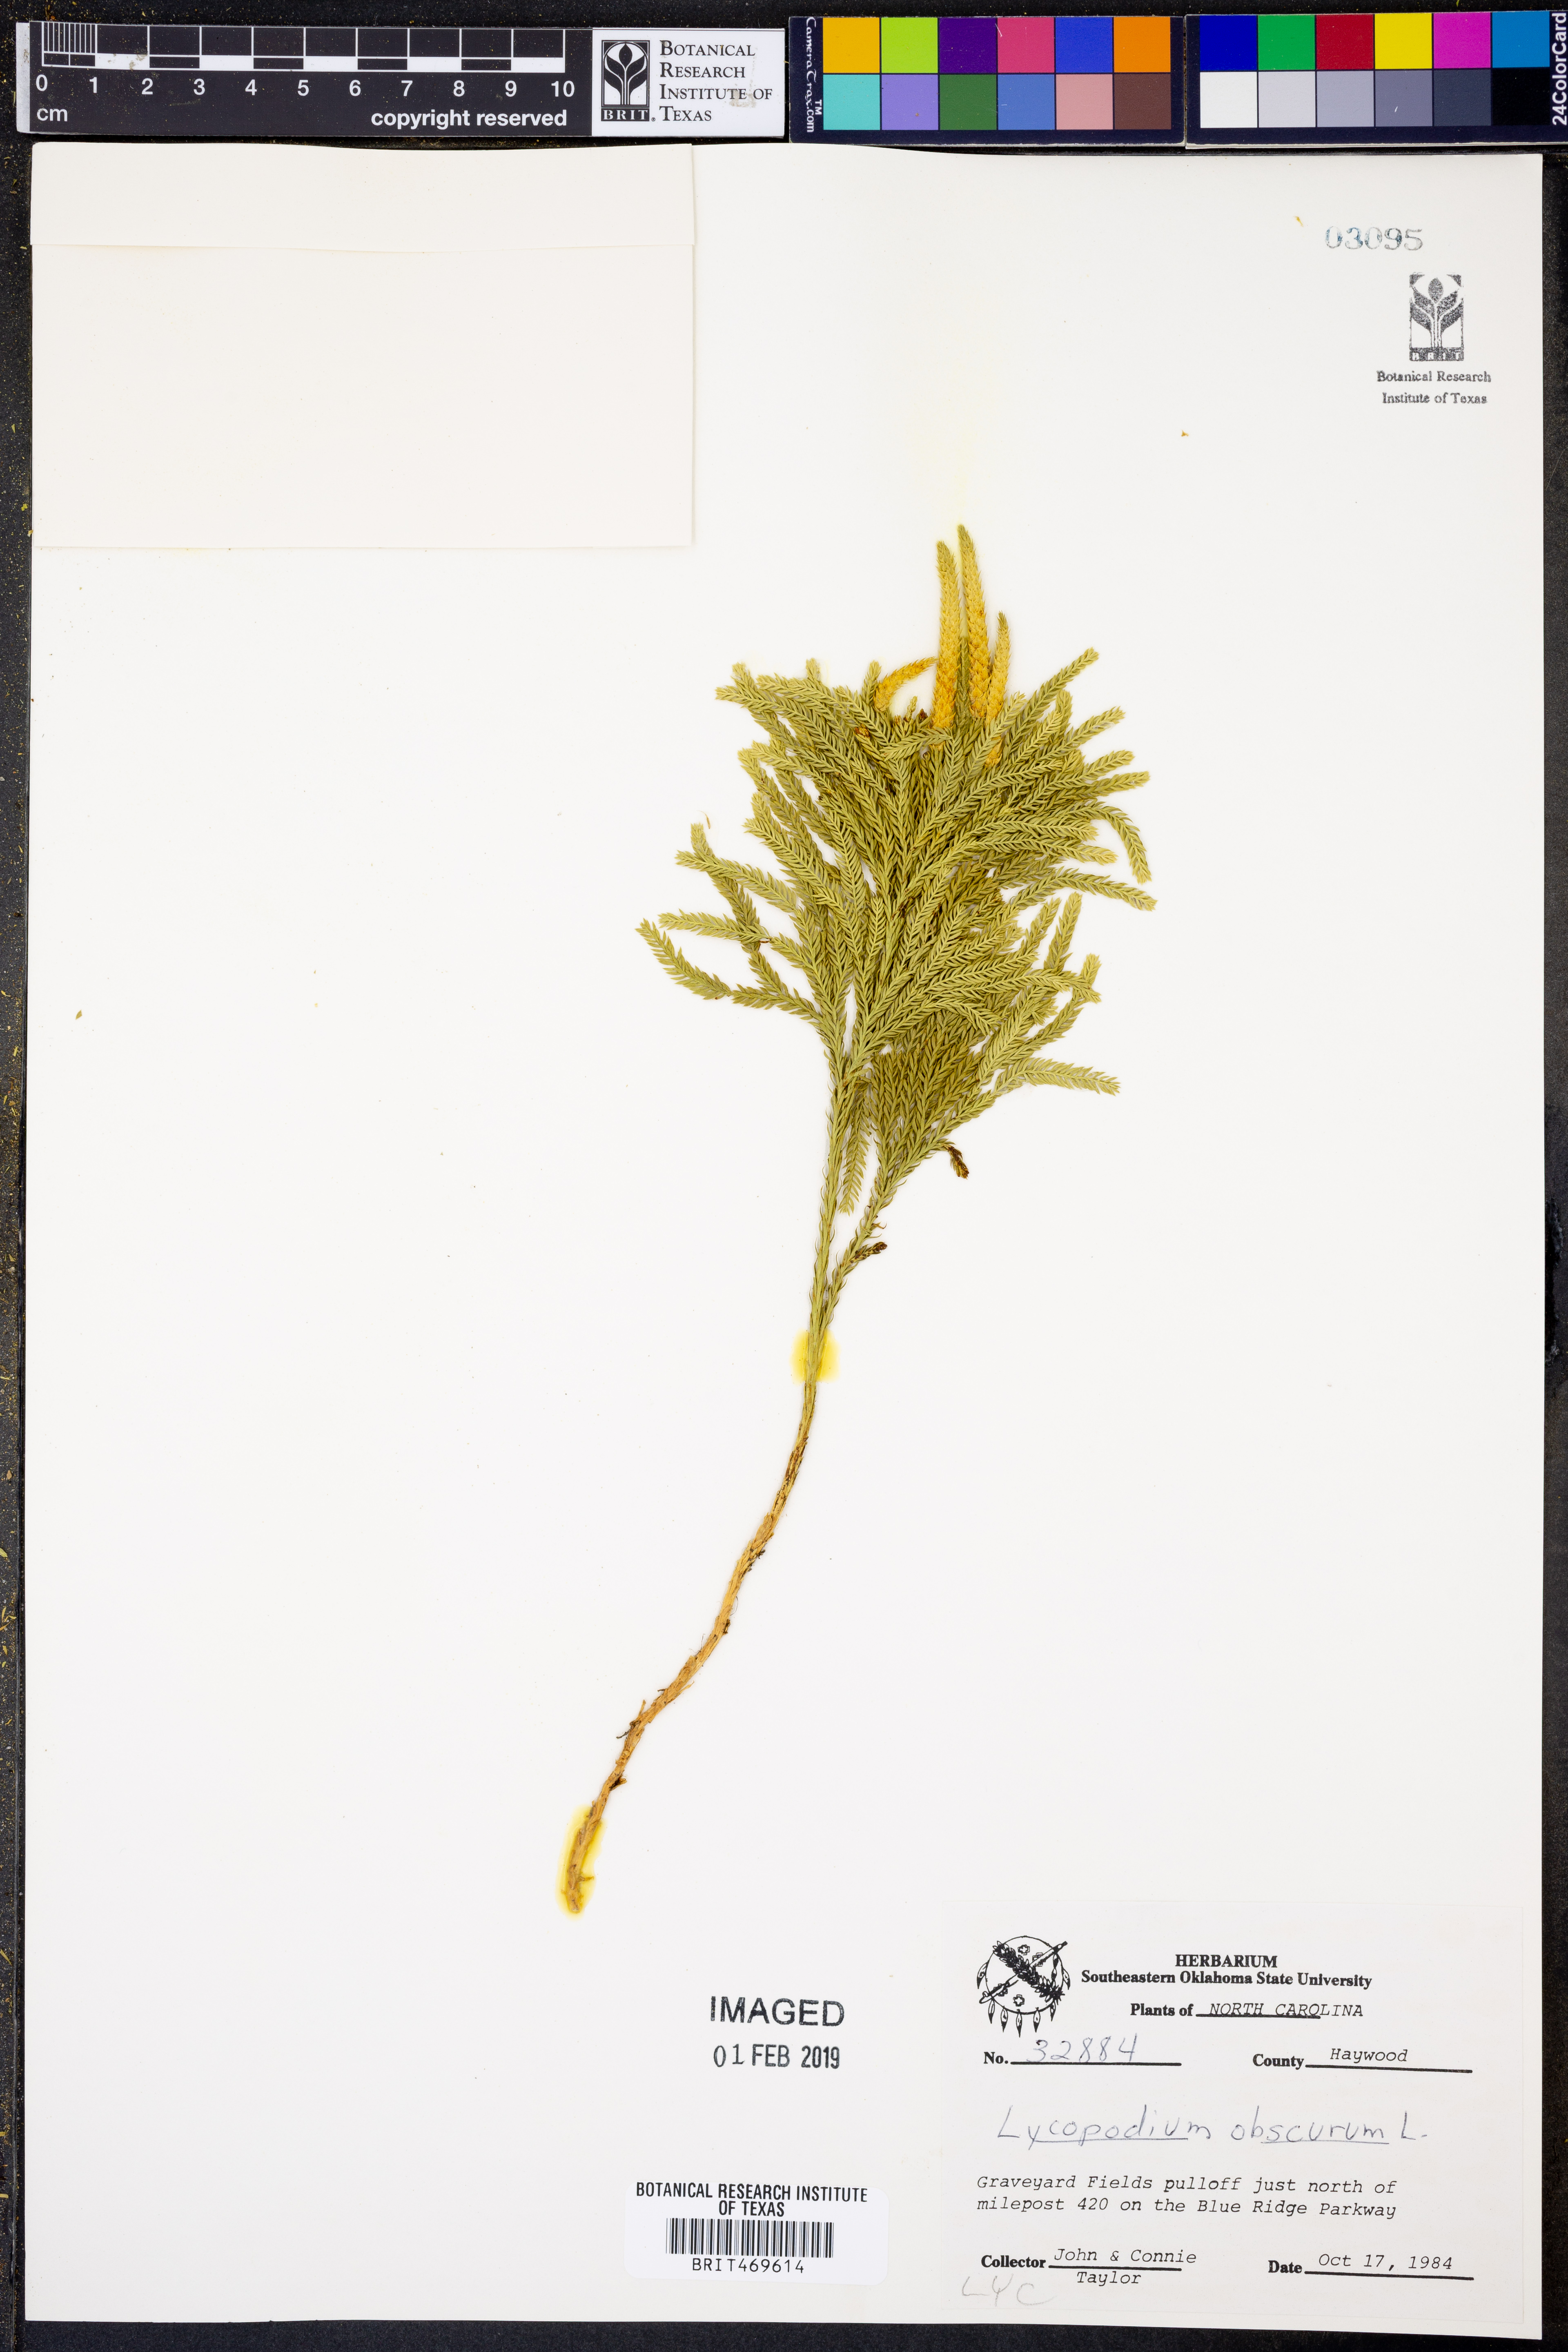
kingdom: Plantae
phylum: Tracheophyta
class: Lycopodiopsida
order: Lycopodiales
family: Lycopodiaceae
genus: Dendrolycopodium
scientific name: Dendrolycopodium obscurum
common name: Common ground-pine
